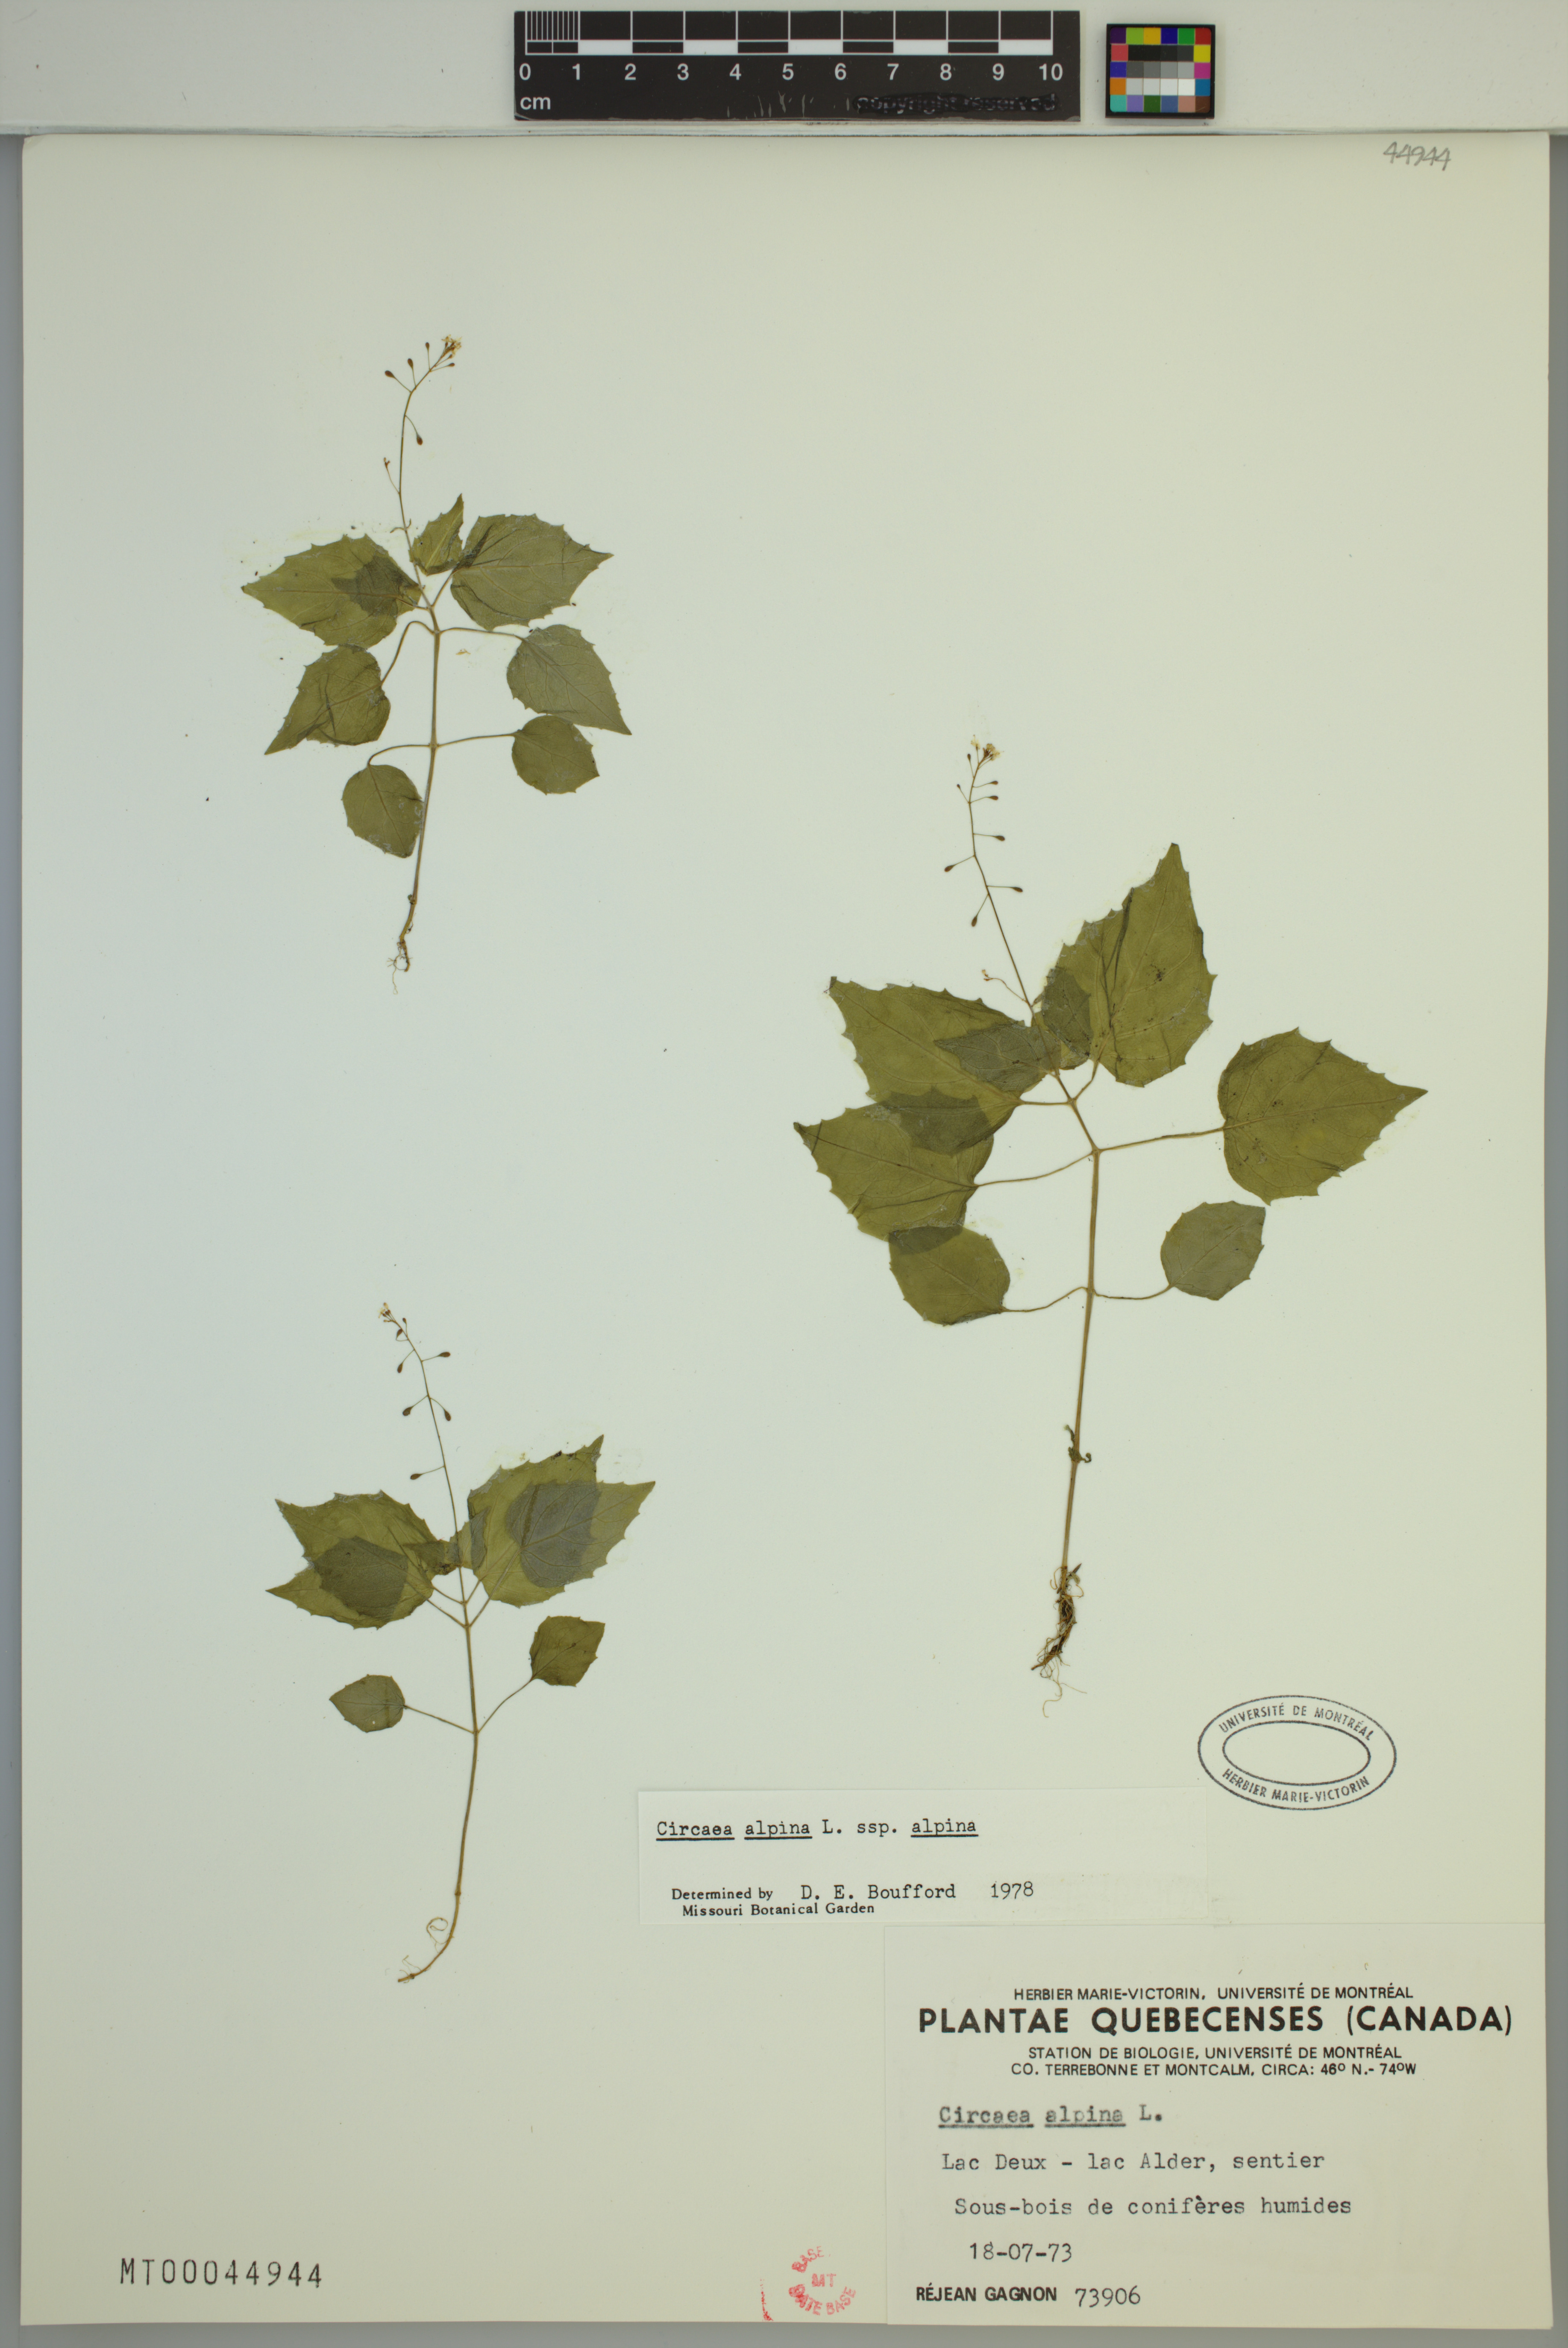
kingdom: Plantae
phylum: Tracheophyta
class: Magnoliopsida
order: Myrtales
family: Onagraceae
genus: Circaea
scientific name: Circaea alpina
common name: Alpine enchanter's-nightshade
